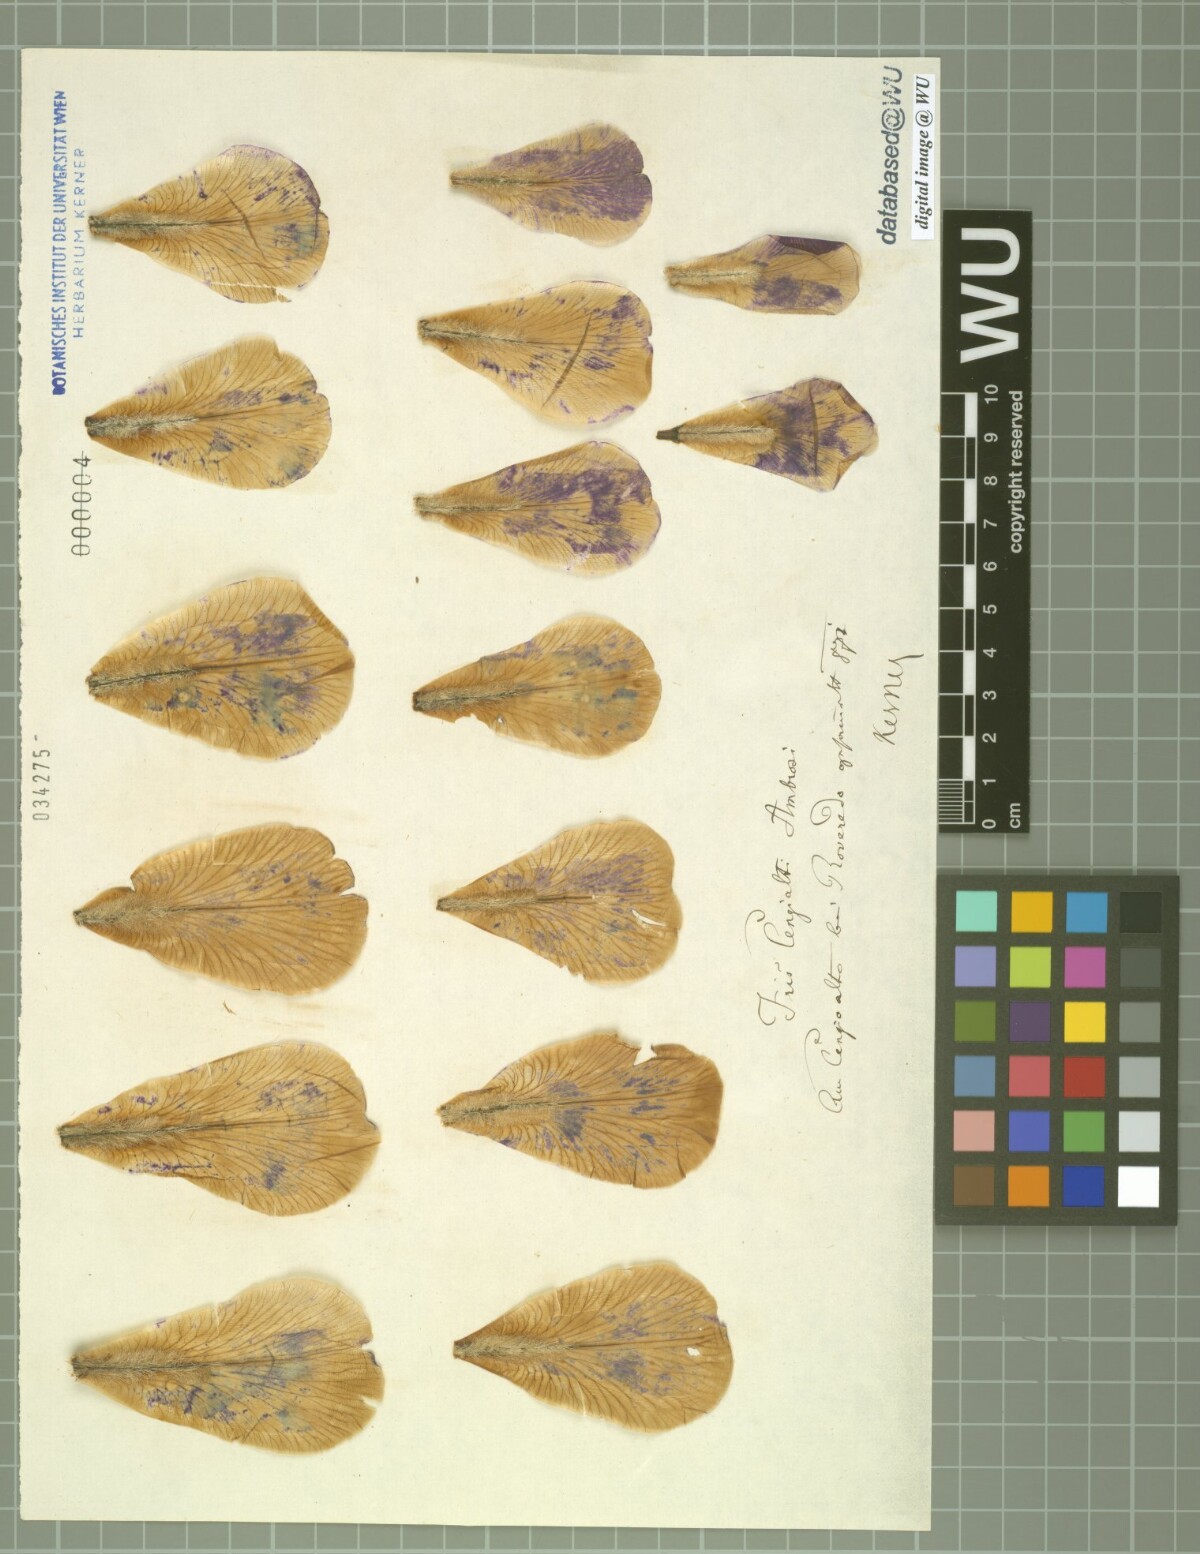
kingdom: Plantae
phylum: Tracheophyta
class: Liliopsida
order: Asparagales
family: Iridaceae
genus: Iris
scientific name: Iris pallida
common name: Sweet iris
